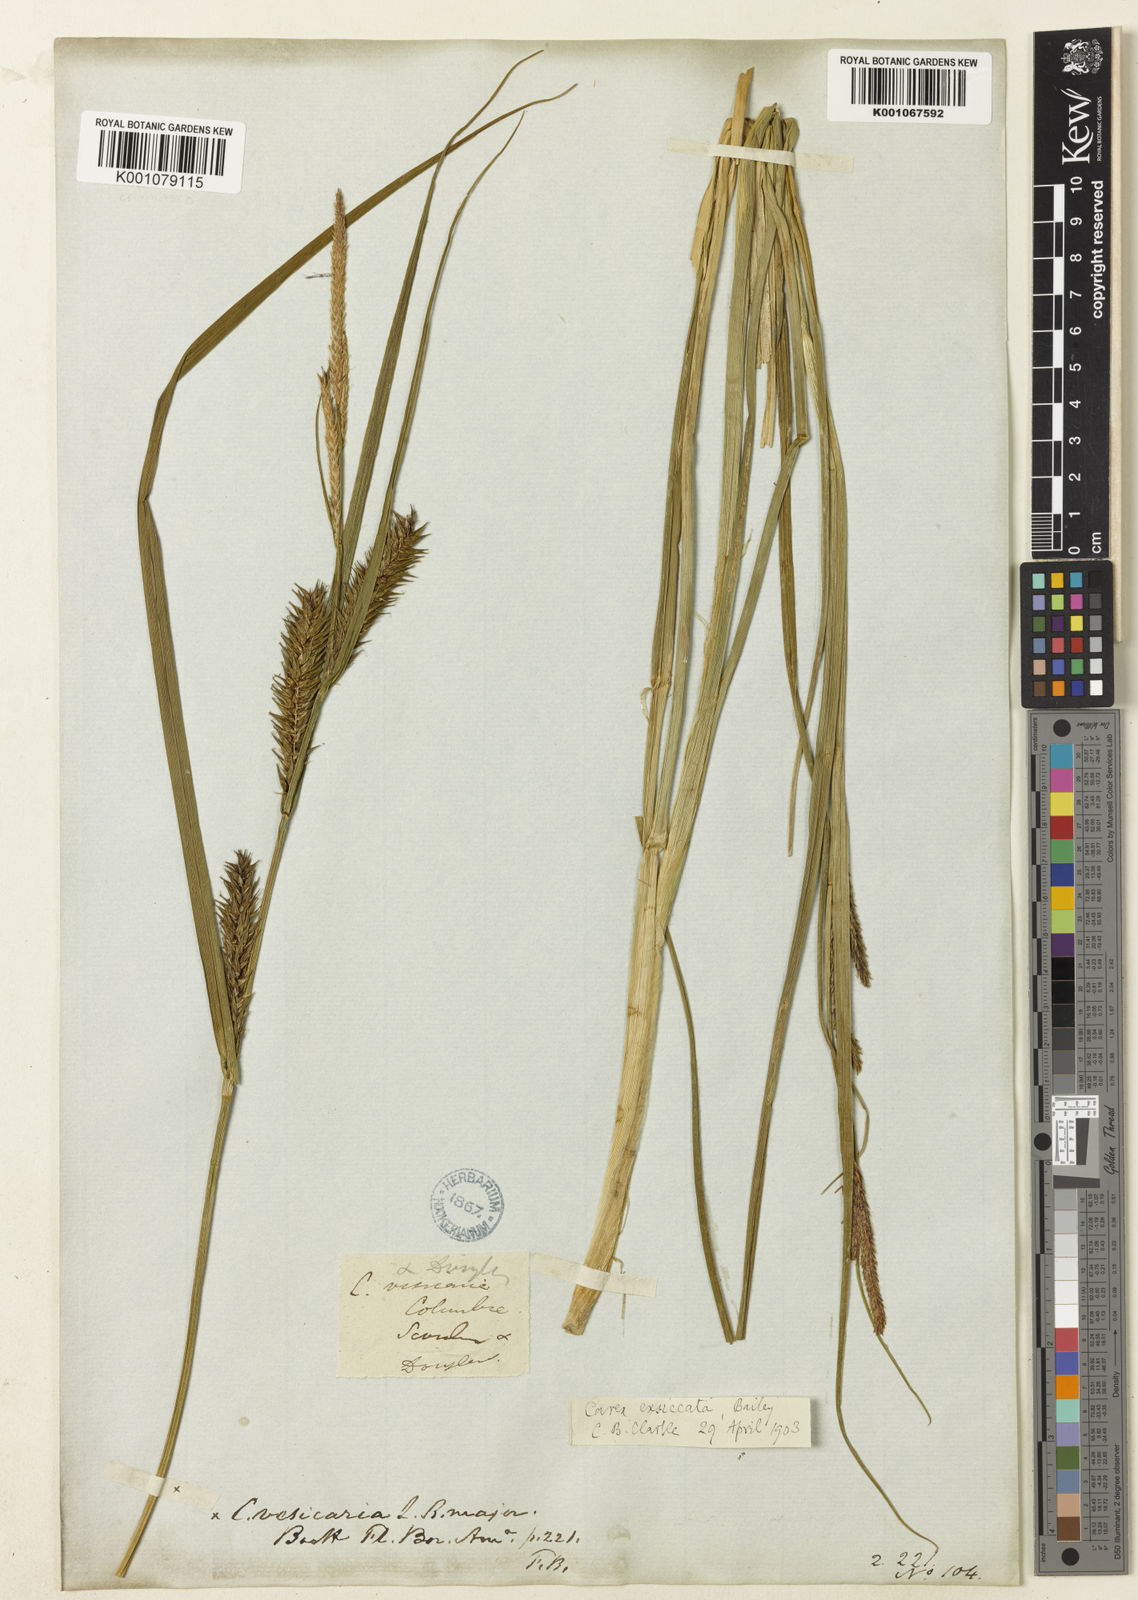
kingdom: Plantae
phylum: Tracheophyta
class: Liliopsida
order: Poales
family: Cyperaceae
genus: Carex
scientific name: Carex exsiccata
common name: Beaked sedge
